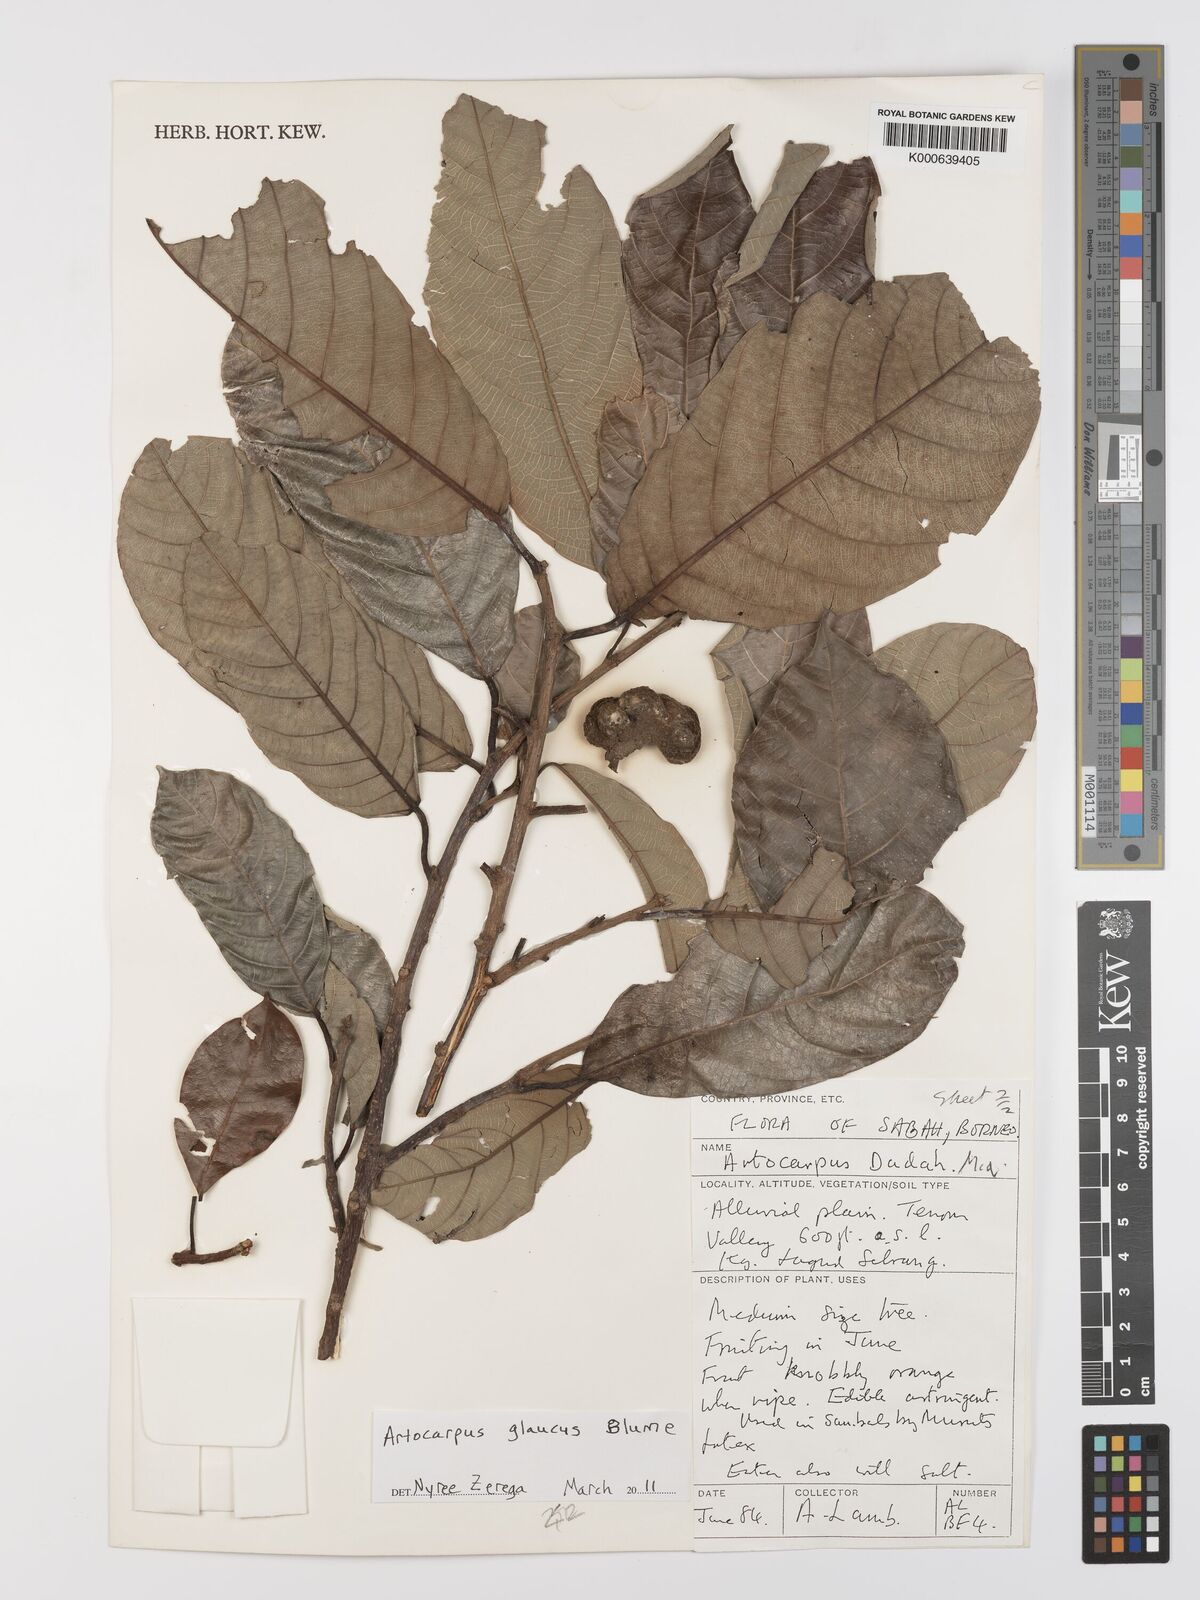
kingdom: Plantae
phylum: Tracheophyta
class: Magnoliopsida
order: Rosales
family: Moraceae
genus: Artocarpus
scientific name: Artocarpus glaucus
